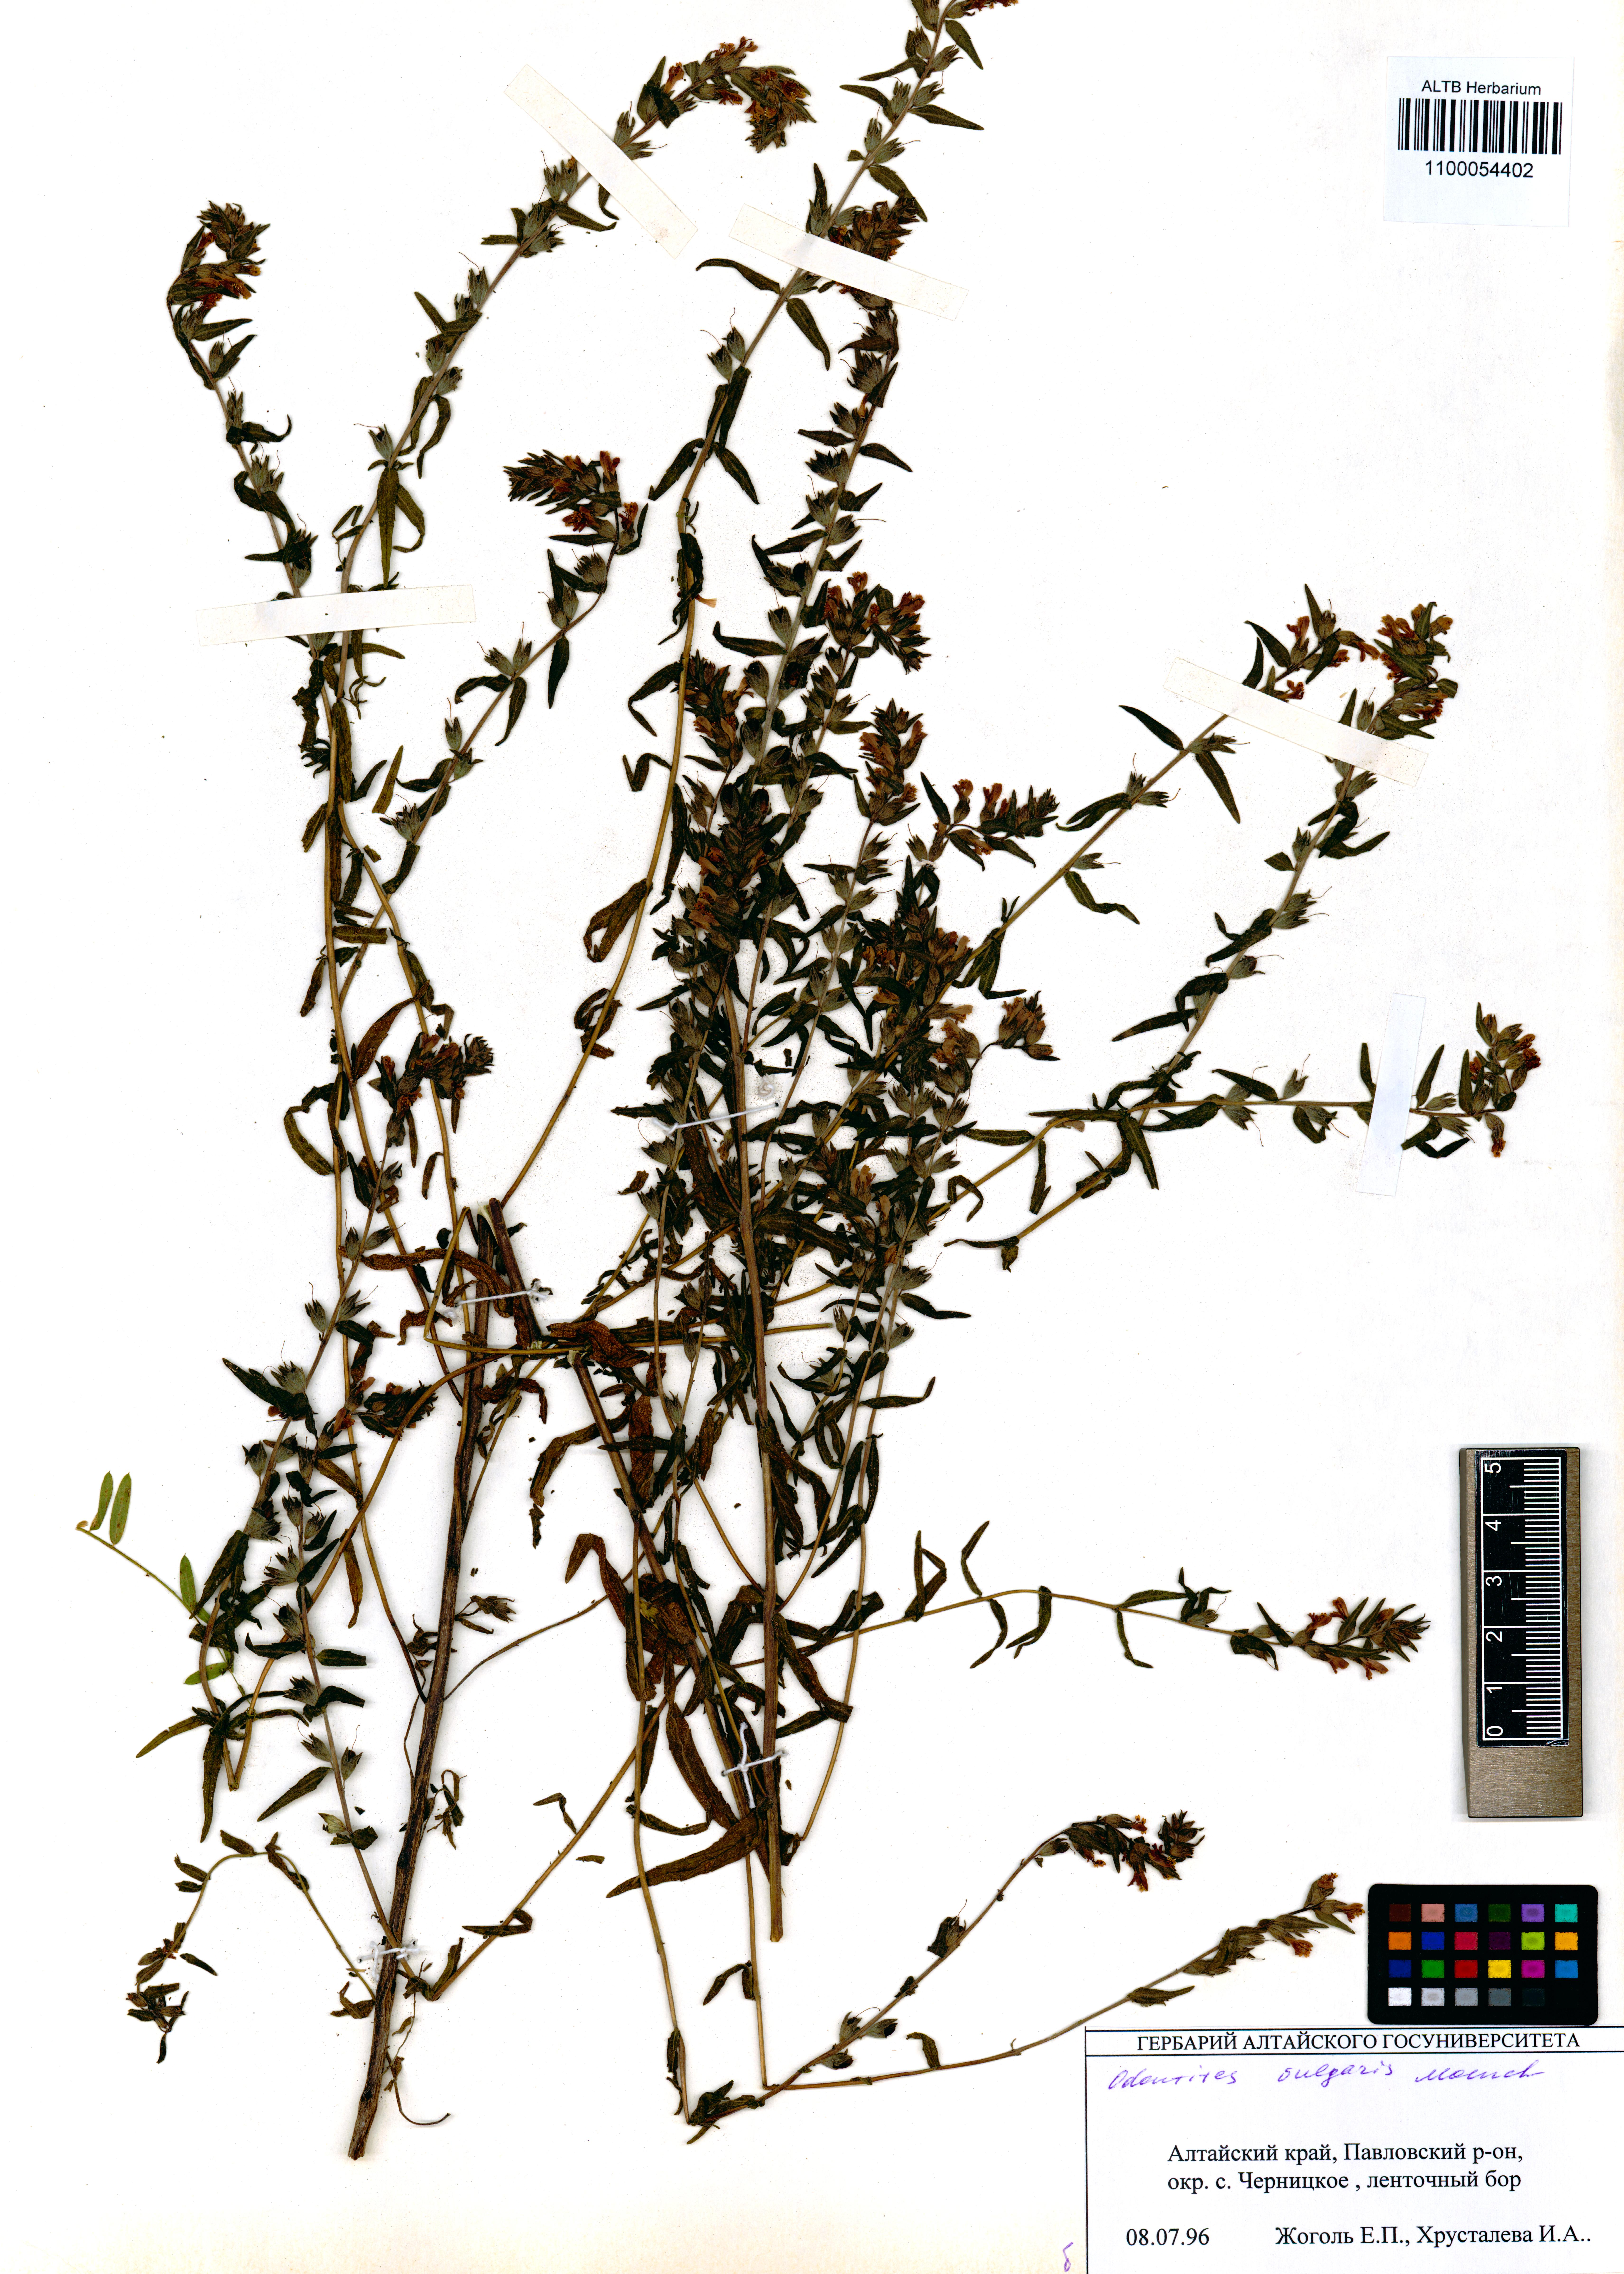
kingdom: Plantae
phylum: Tracheophyta
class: Magnoliopsida
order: Lamiales
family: Orobanchaceae
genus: Odontites
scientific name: Odontites vulgaris
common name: Broomrape
